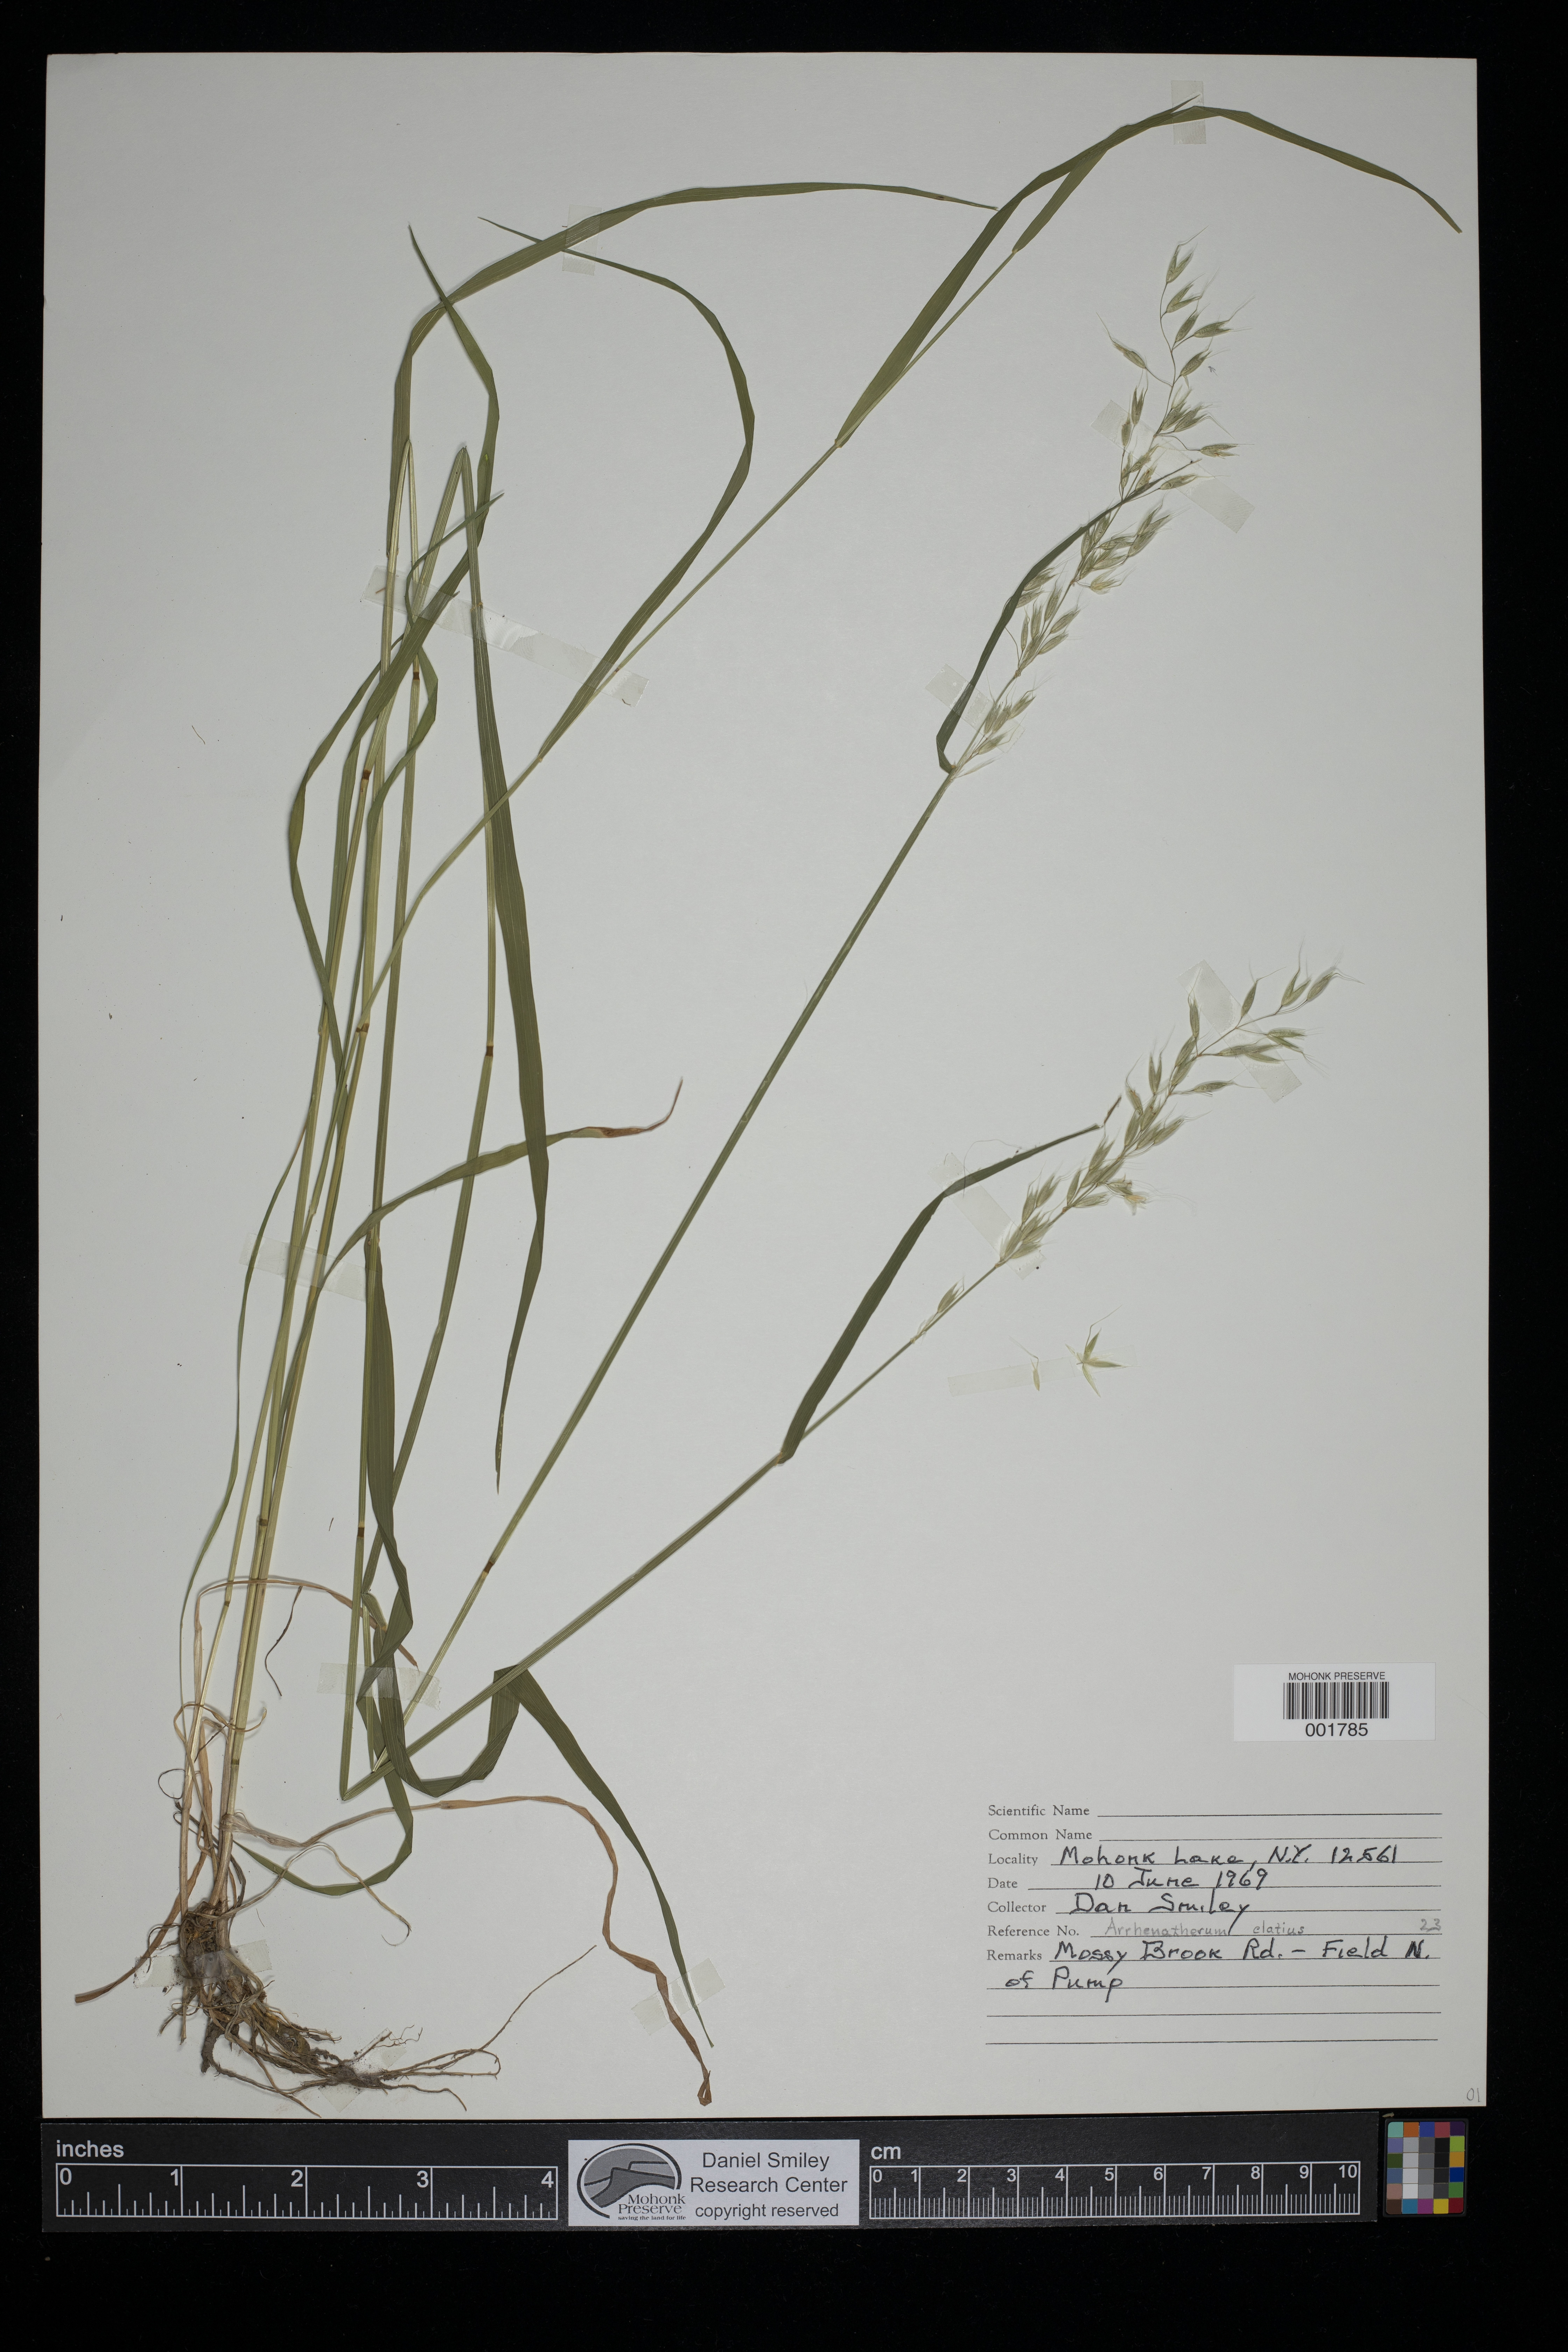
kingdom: Plantae
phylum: Tracheophyta
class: Liliopsida
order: Poales
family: Poaceae
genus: Arrhenatherum
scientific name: Arrhenatherum elatius
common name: Tall oatgrass
